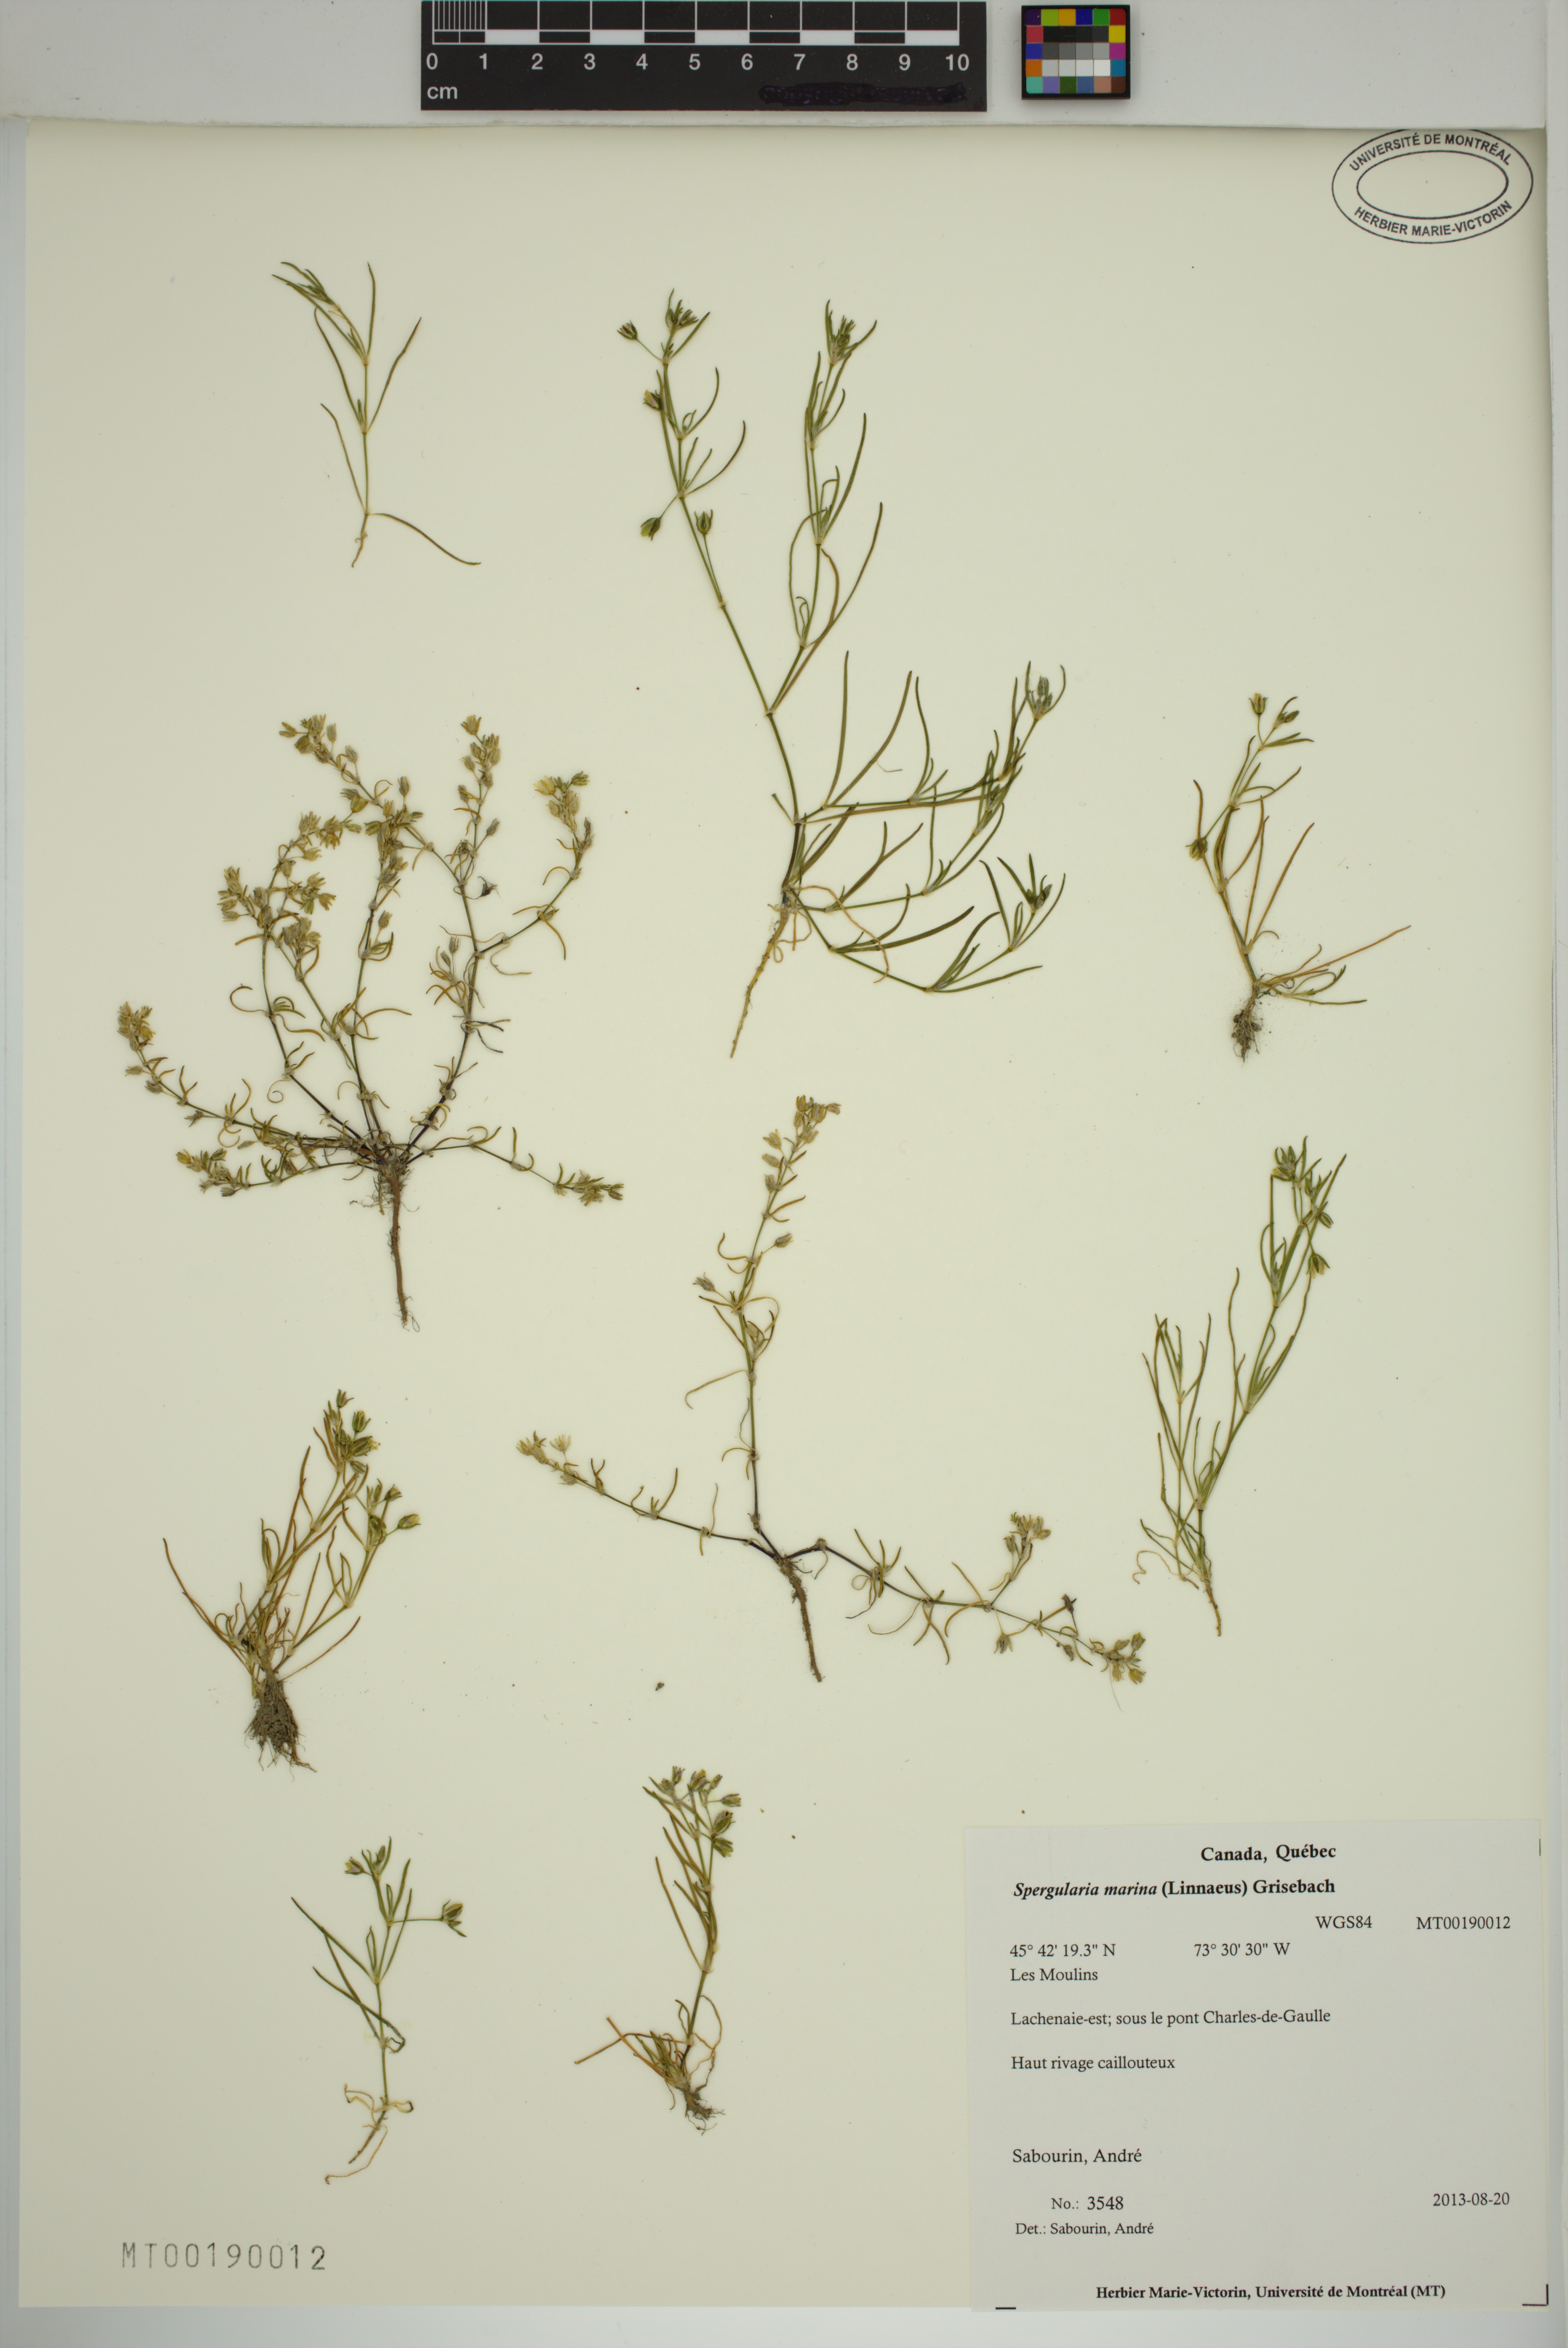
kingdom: Plantae
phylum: Tracheophyta
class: Magnoliopsida
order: Caryophyllales
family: Caryophyllaceae
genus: Spergularia
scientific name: Spergularia marina
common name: Lesser sea-spurrey
